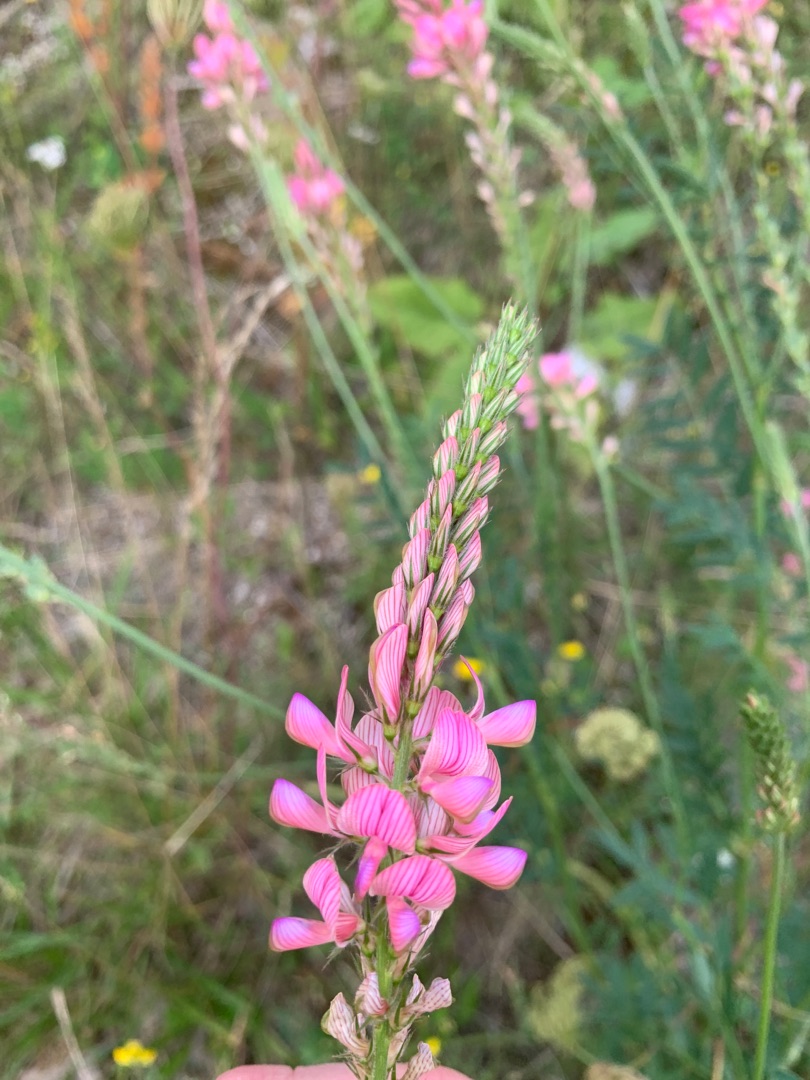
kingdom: Plantae
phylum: Tracheophyta
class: Magnoliopsida
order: Fabales
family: Fabaceae
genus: Onobrychis
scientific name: Onobrychis viciifolia
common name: Esparsette
